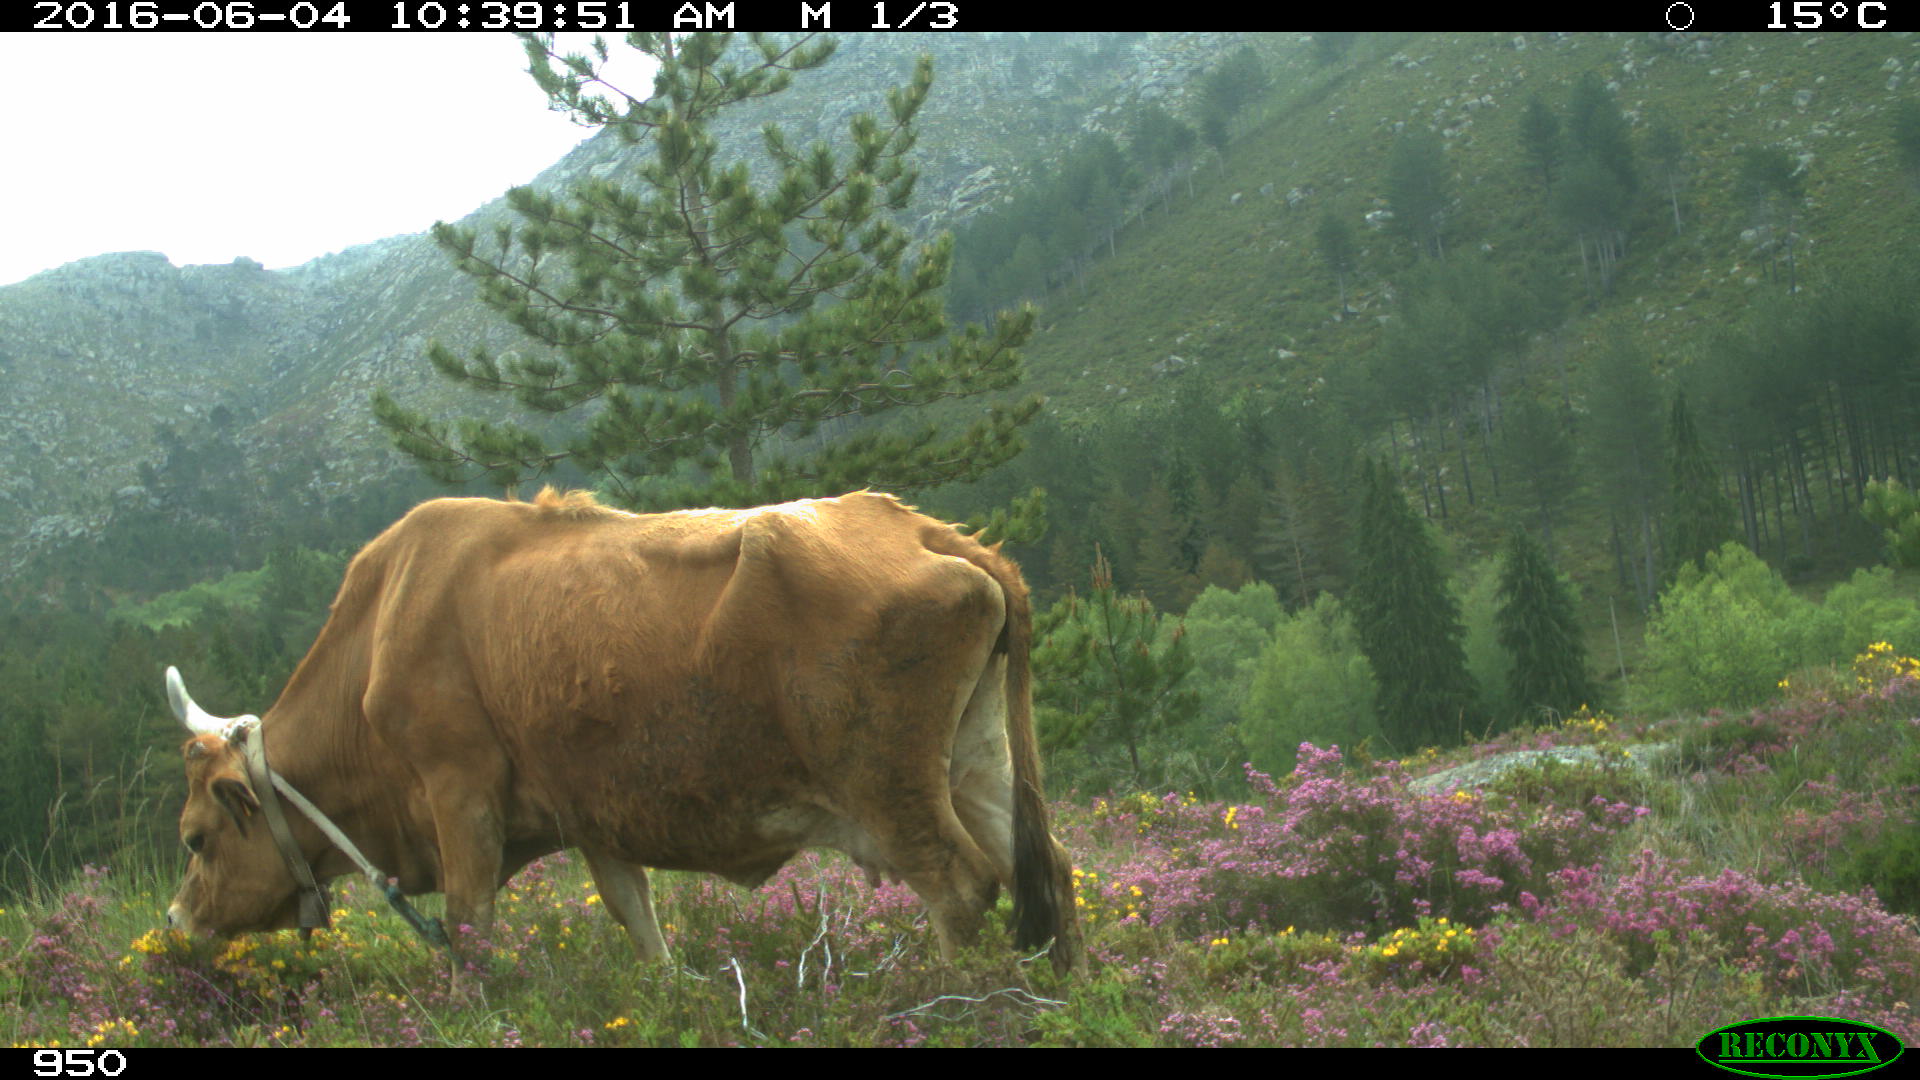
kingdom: Animalia
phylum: Chordata
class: Mammalia
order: Artiodactyla
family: Bovidae
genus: Bos
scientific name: Bos taurus
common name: Domesticated cattle
